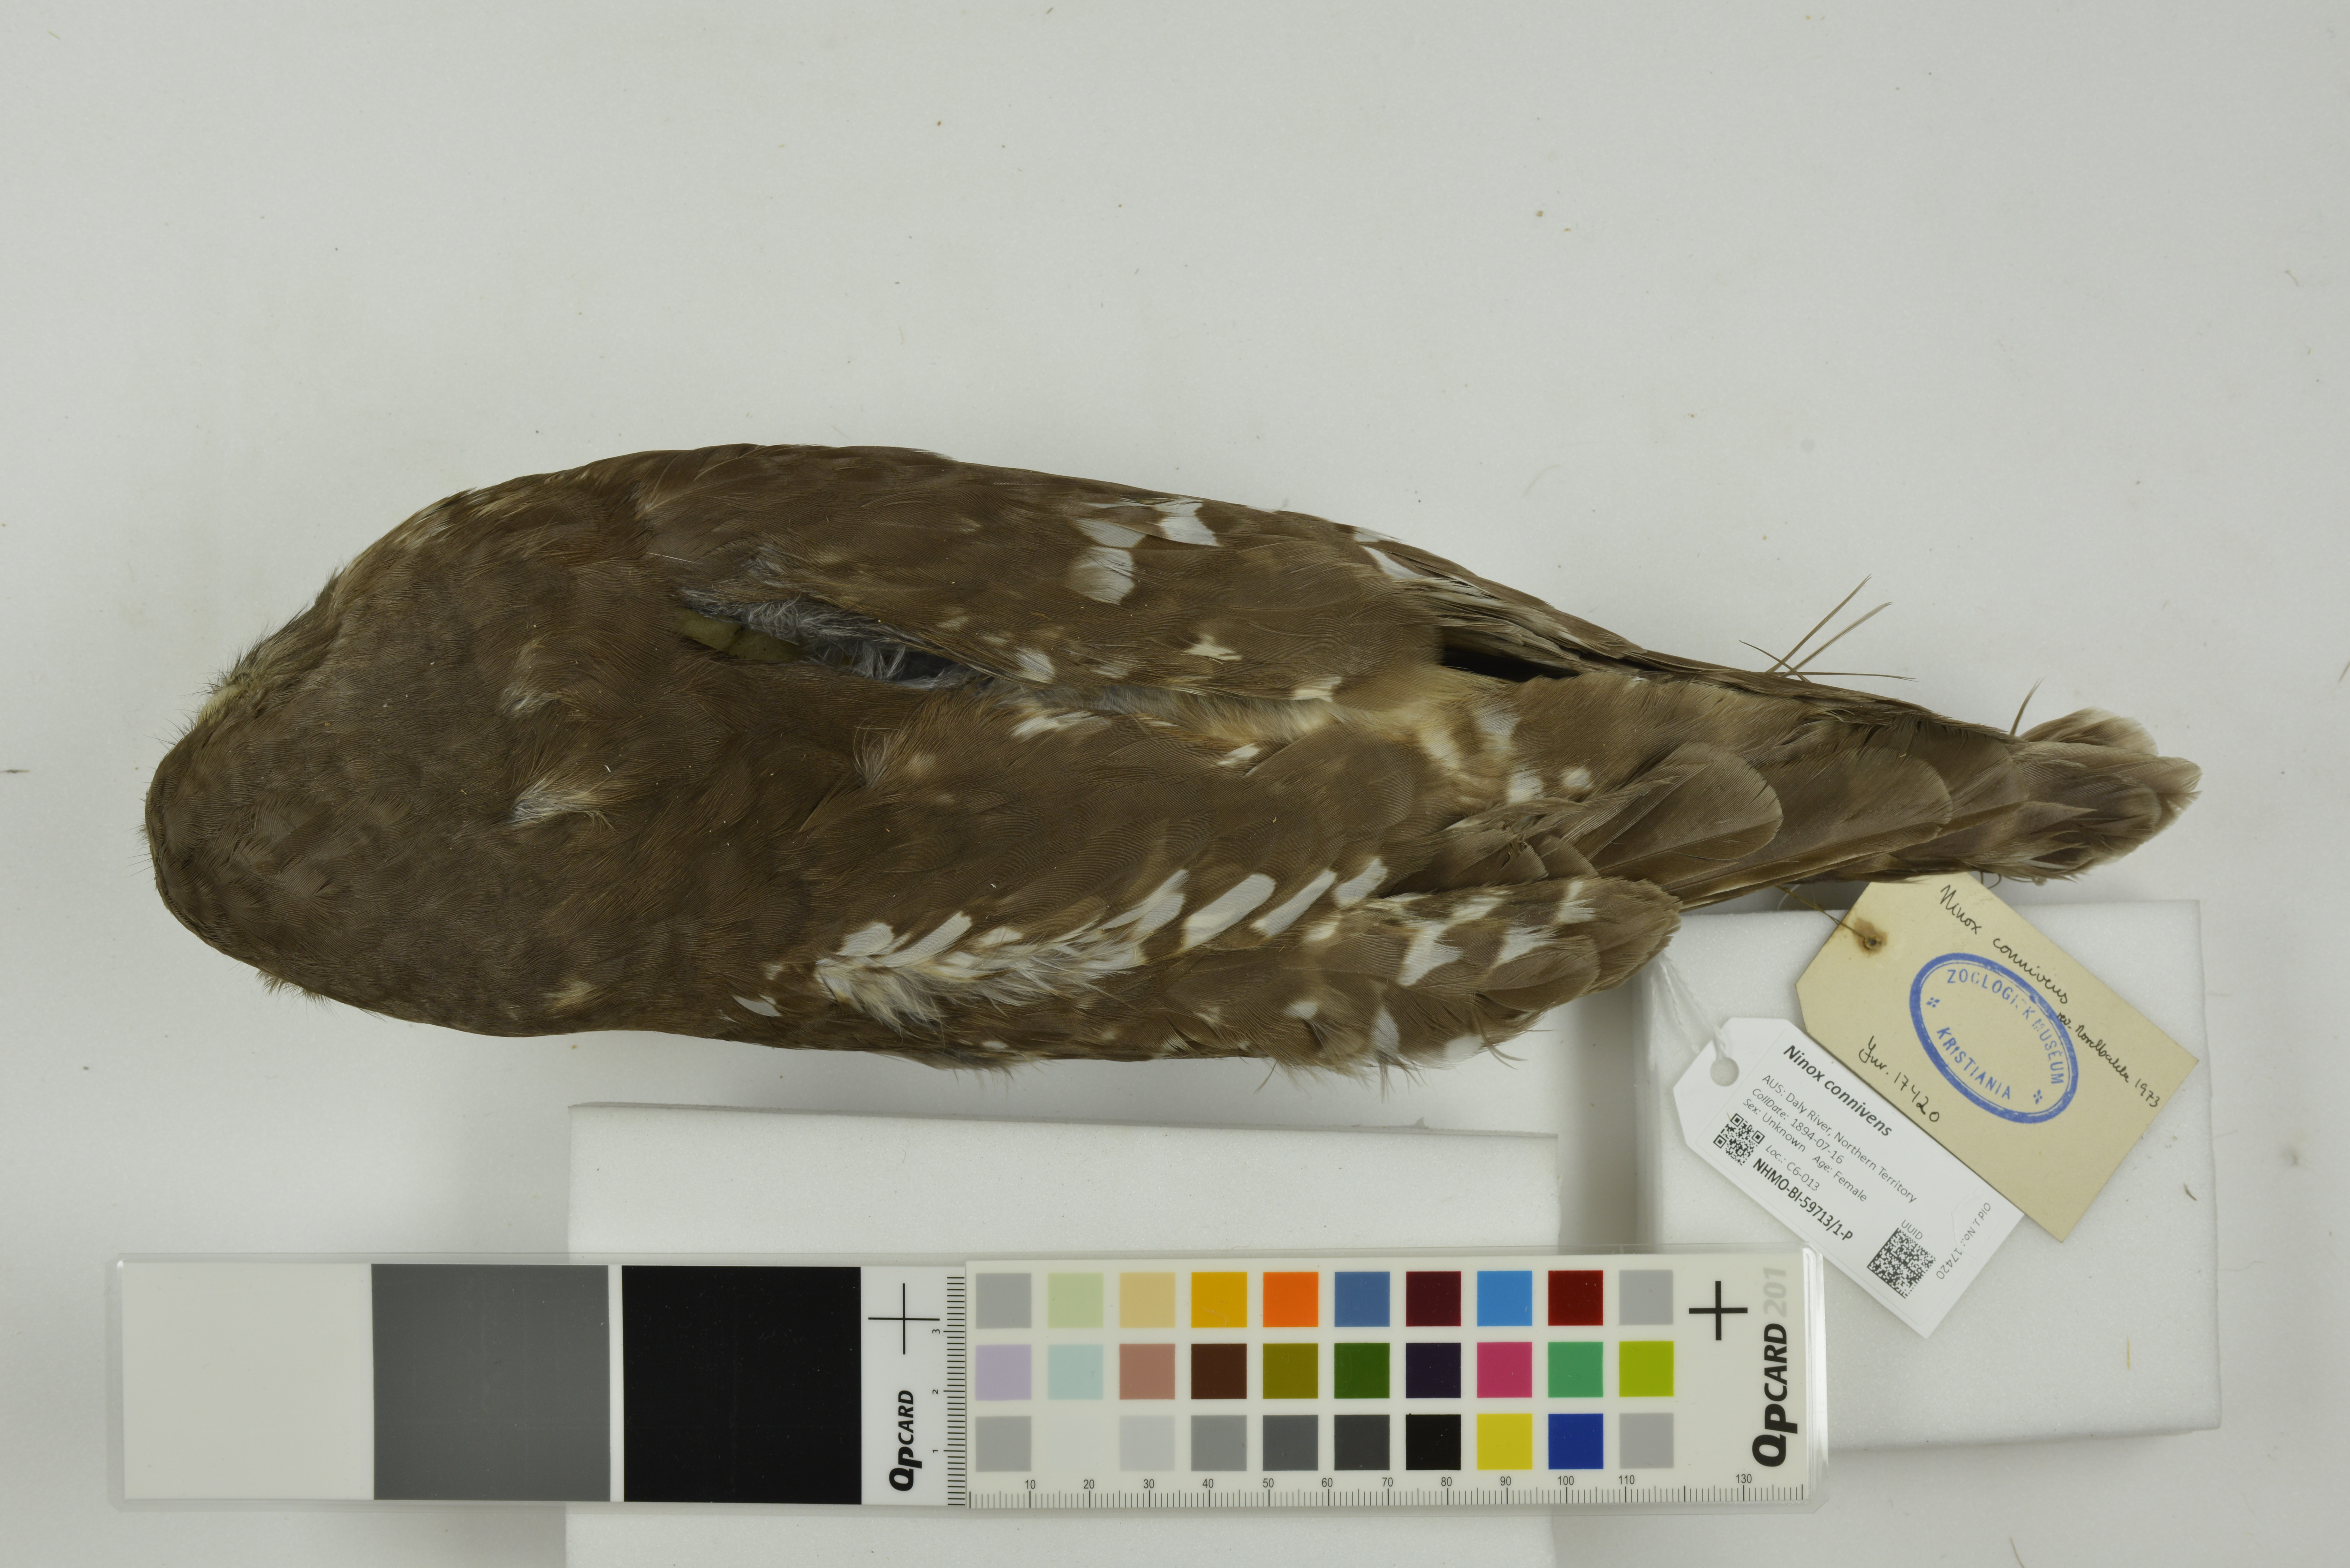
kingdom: Animalia
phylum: Chordata
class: Aves
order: Strigiformes
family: Strigidae
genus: Ninox
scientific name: Ninox connivens
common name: Barking owl
